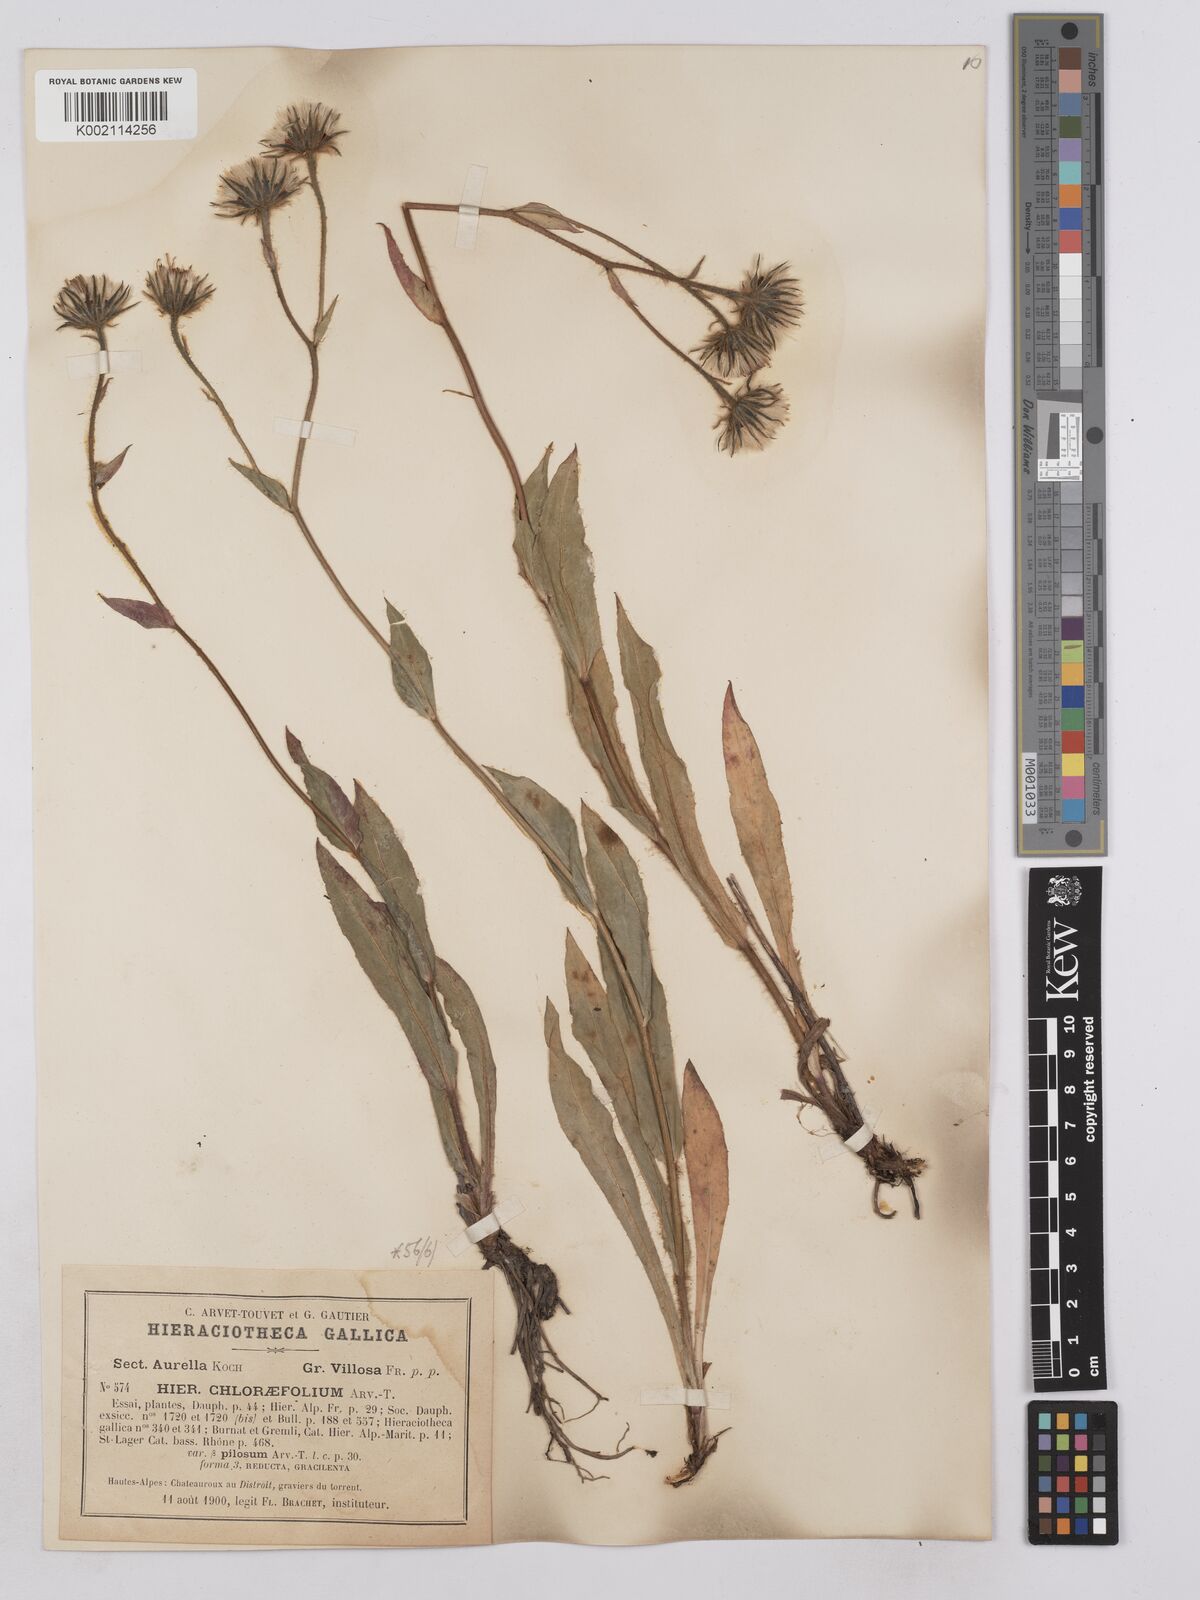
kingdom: Plantae
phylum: Tracheophyta
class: Magnoliopsida
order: Asterales
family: Asteraceae
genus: Hieracium
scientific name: Hieracium chlorifolium
